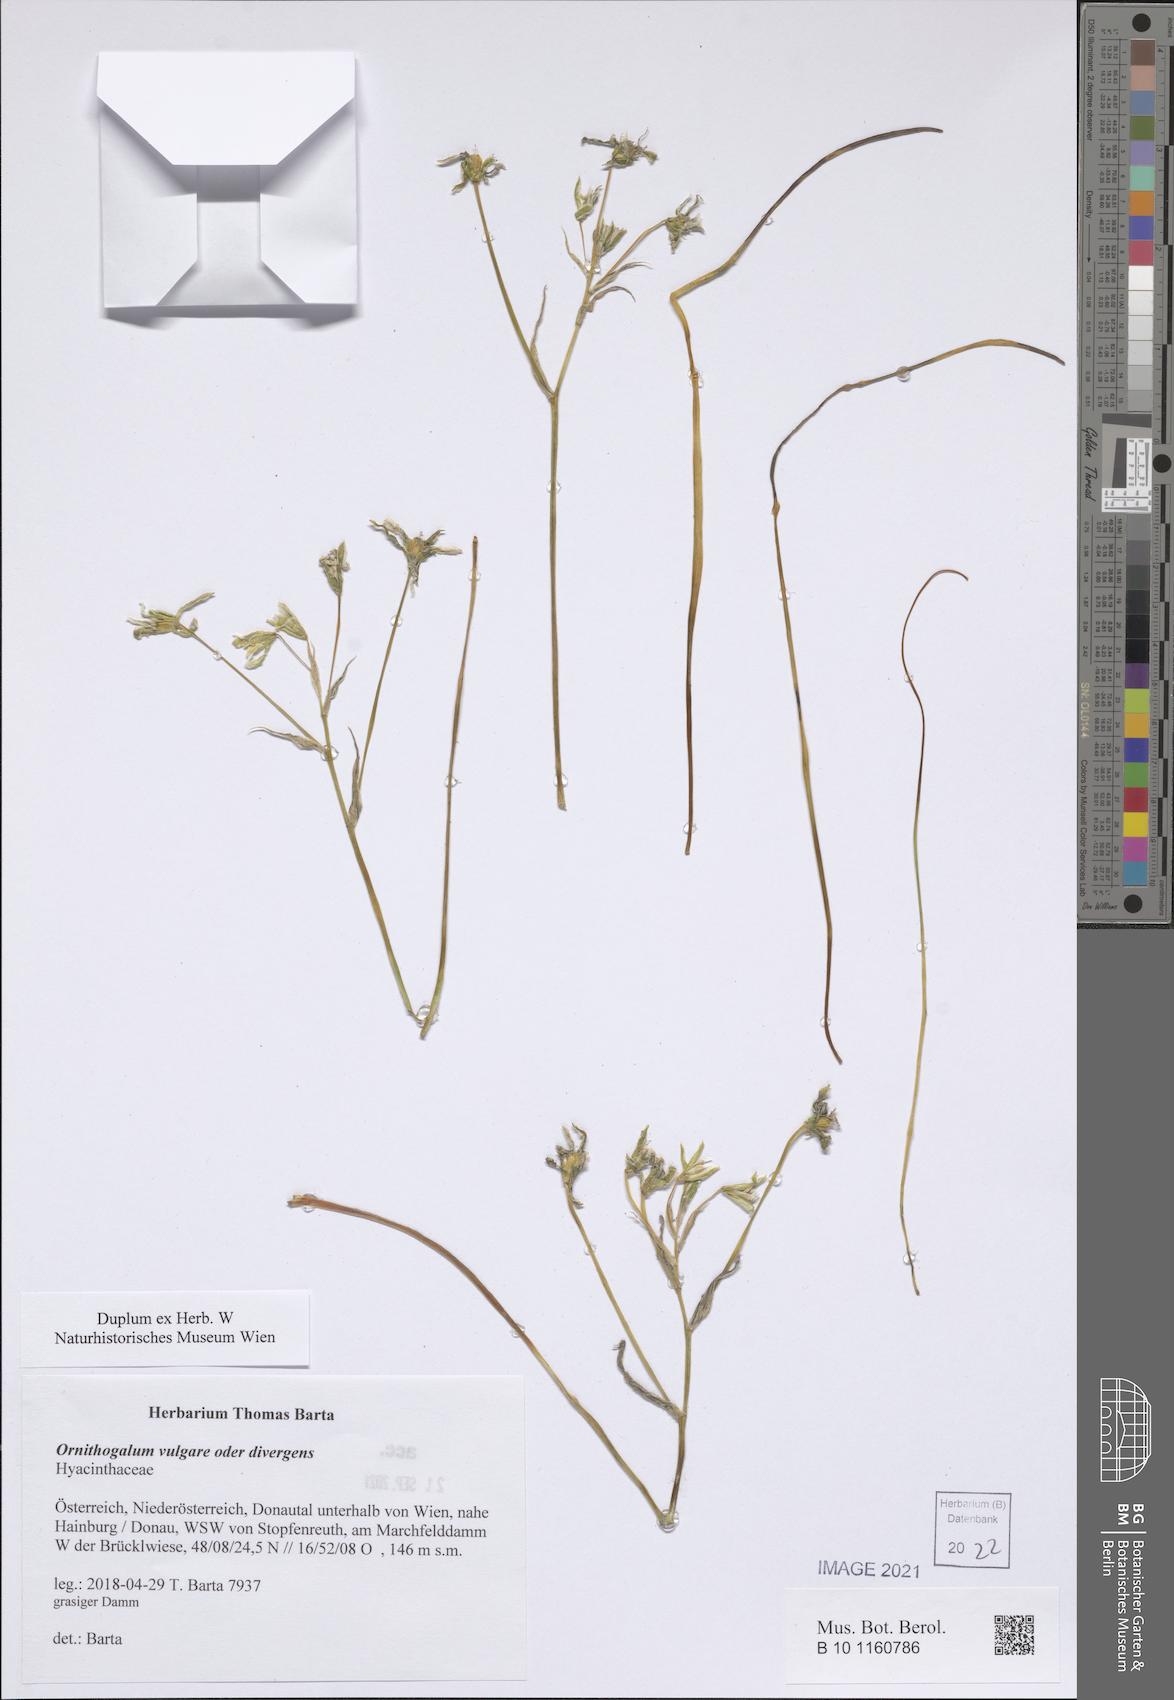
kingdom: Plantae
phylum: Tracheophyta
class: Liliopsida
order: Asparagales
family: Asparagaceae
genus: Ornithogalum
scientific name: Ornithogalum
